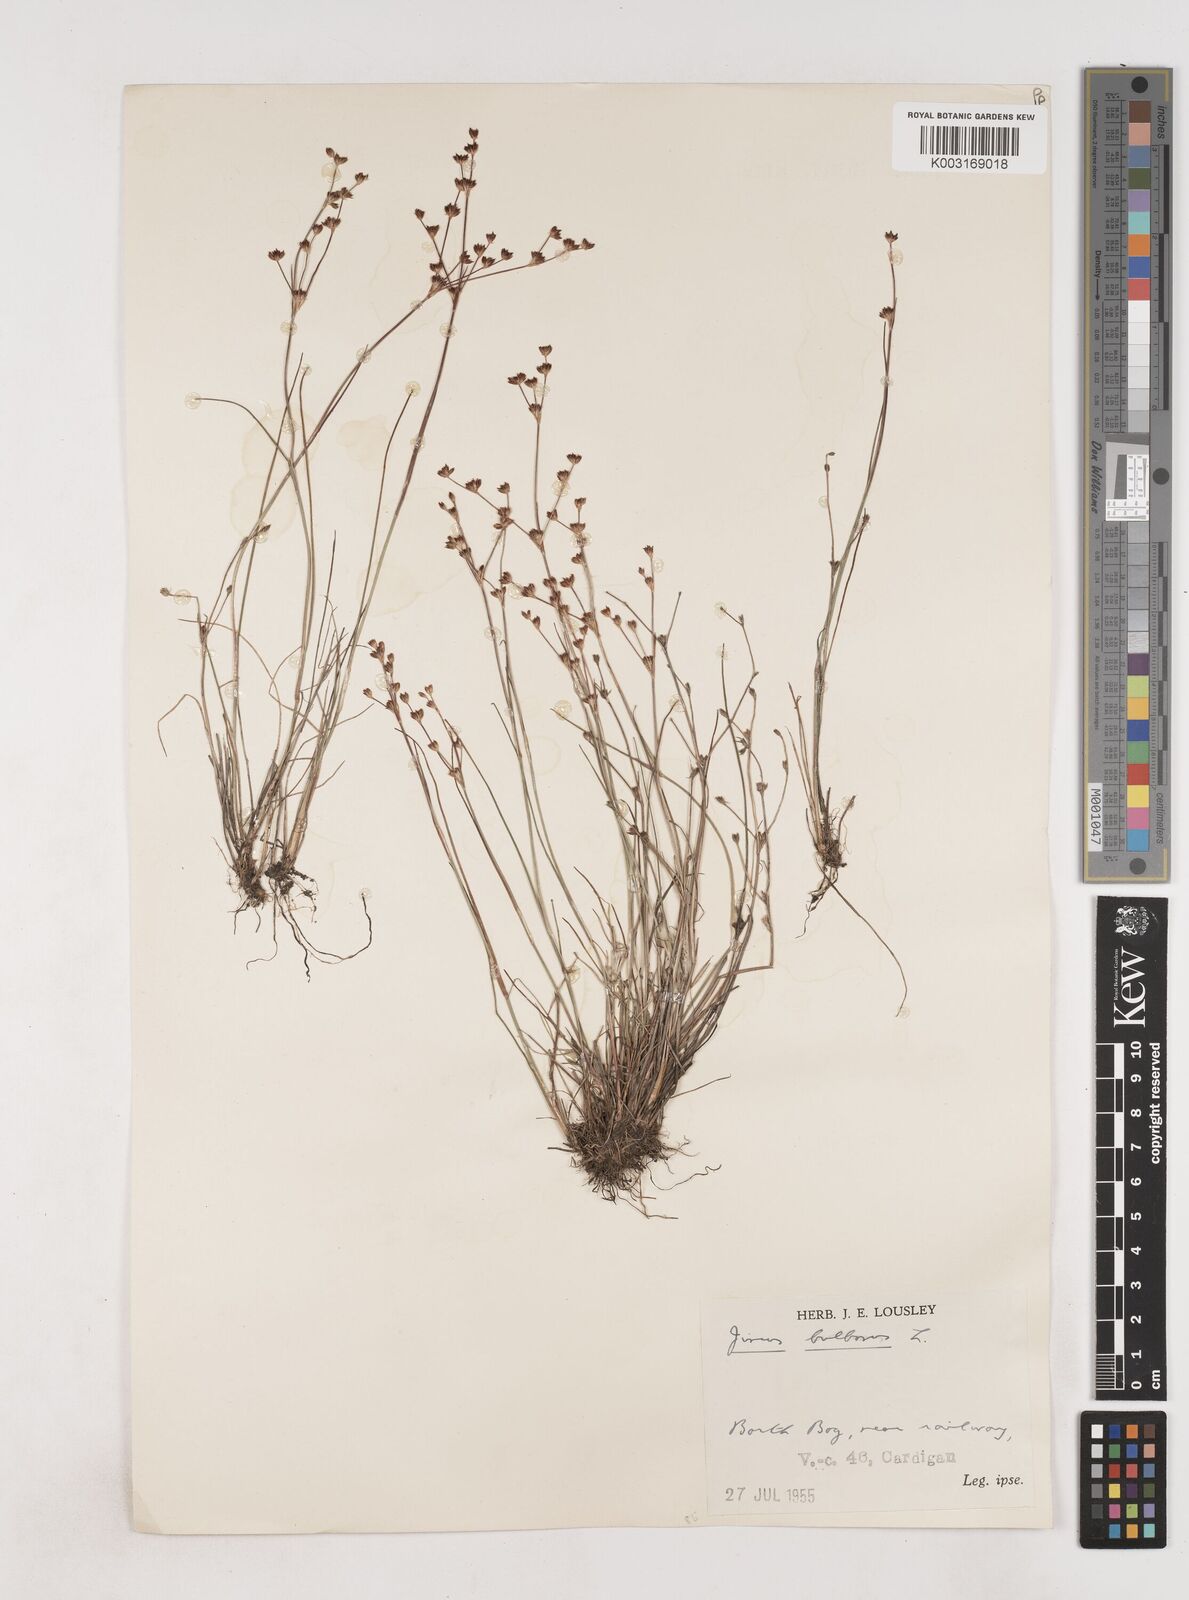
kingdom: Plantae
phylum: Tracheophyta
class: Liliopsida
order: Poales
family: Juncaceae
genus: Juncus
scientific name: Juncus bulbosus
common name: Bulbous rush
